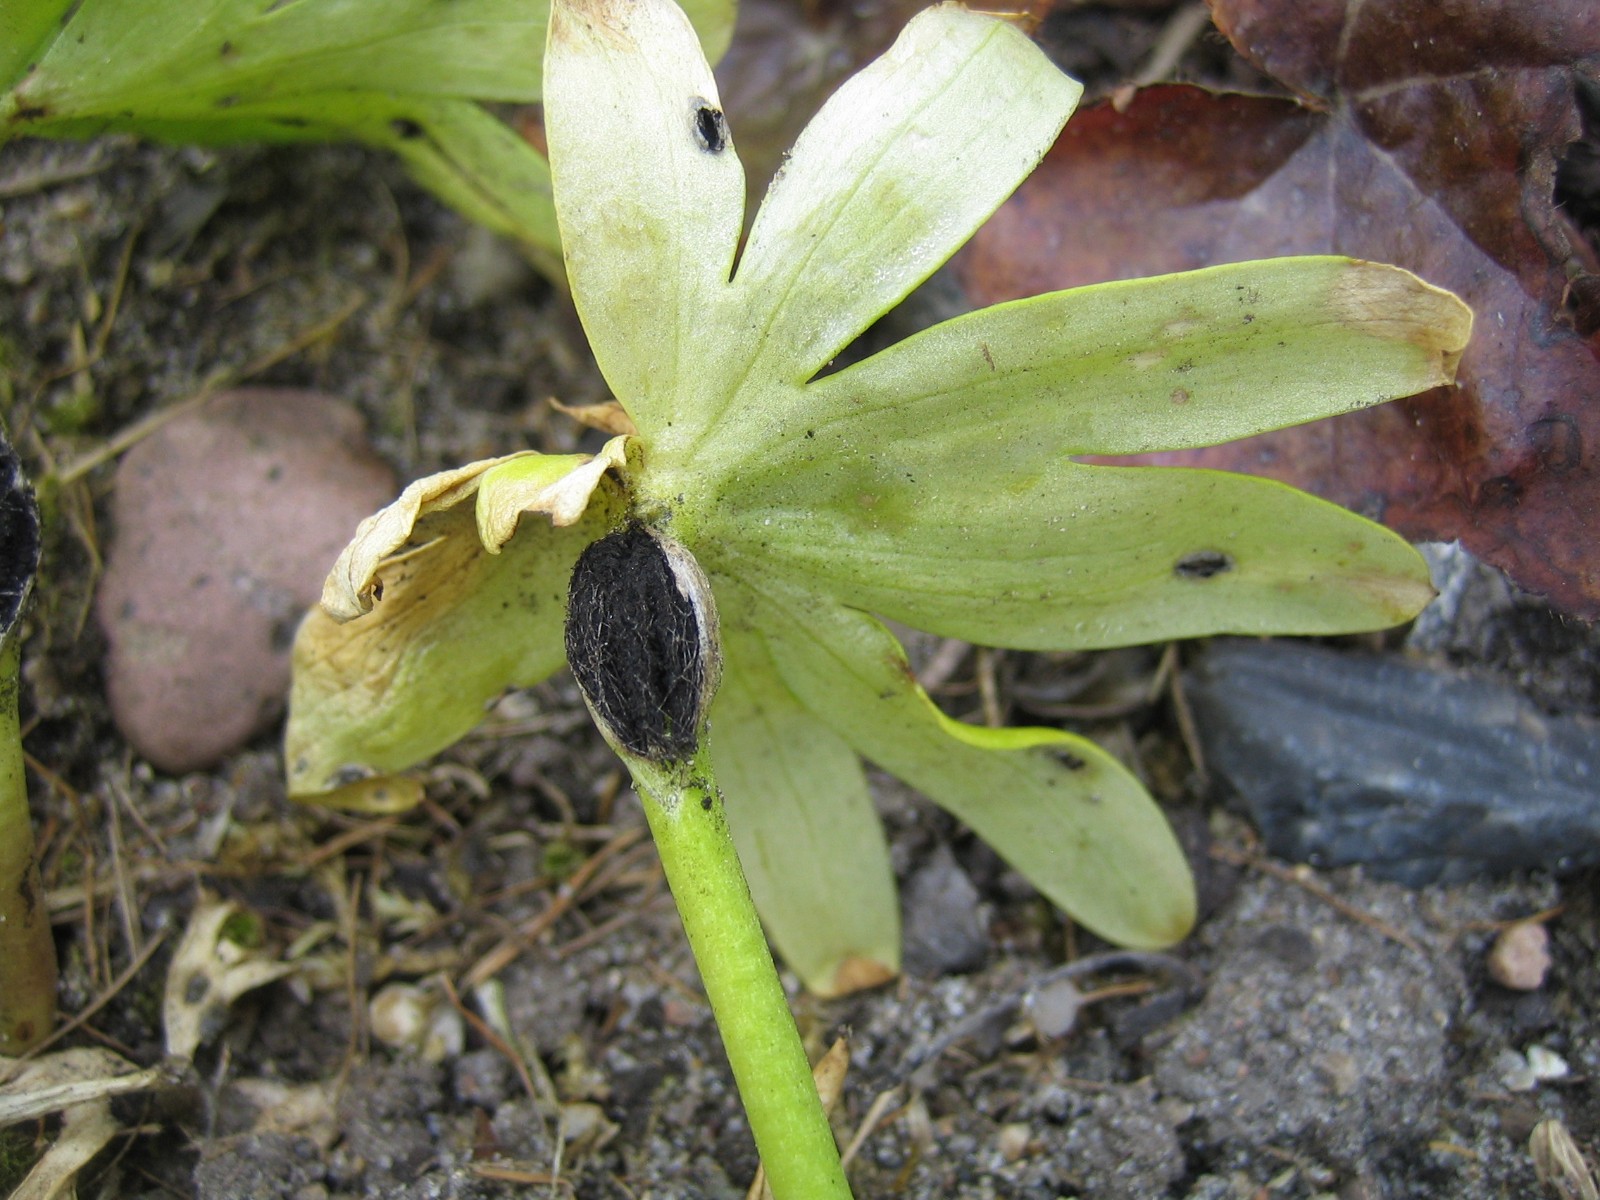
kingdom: Fungi
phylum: Basidiomycota
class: Ustilaginomycetes
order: Urocystidales
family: Urocystidaceae
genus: Urocystis
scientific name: Urocystis eranthidis
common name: erantis-brand
